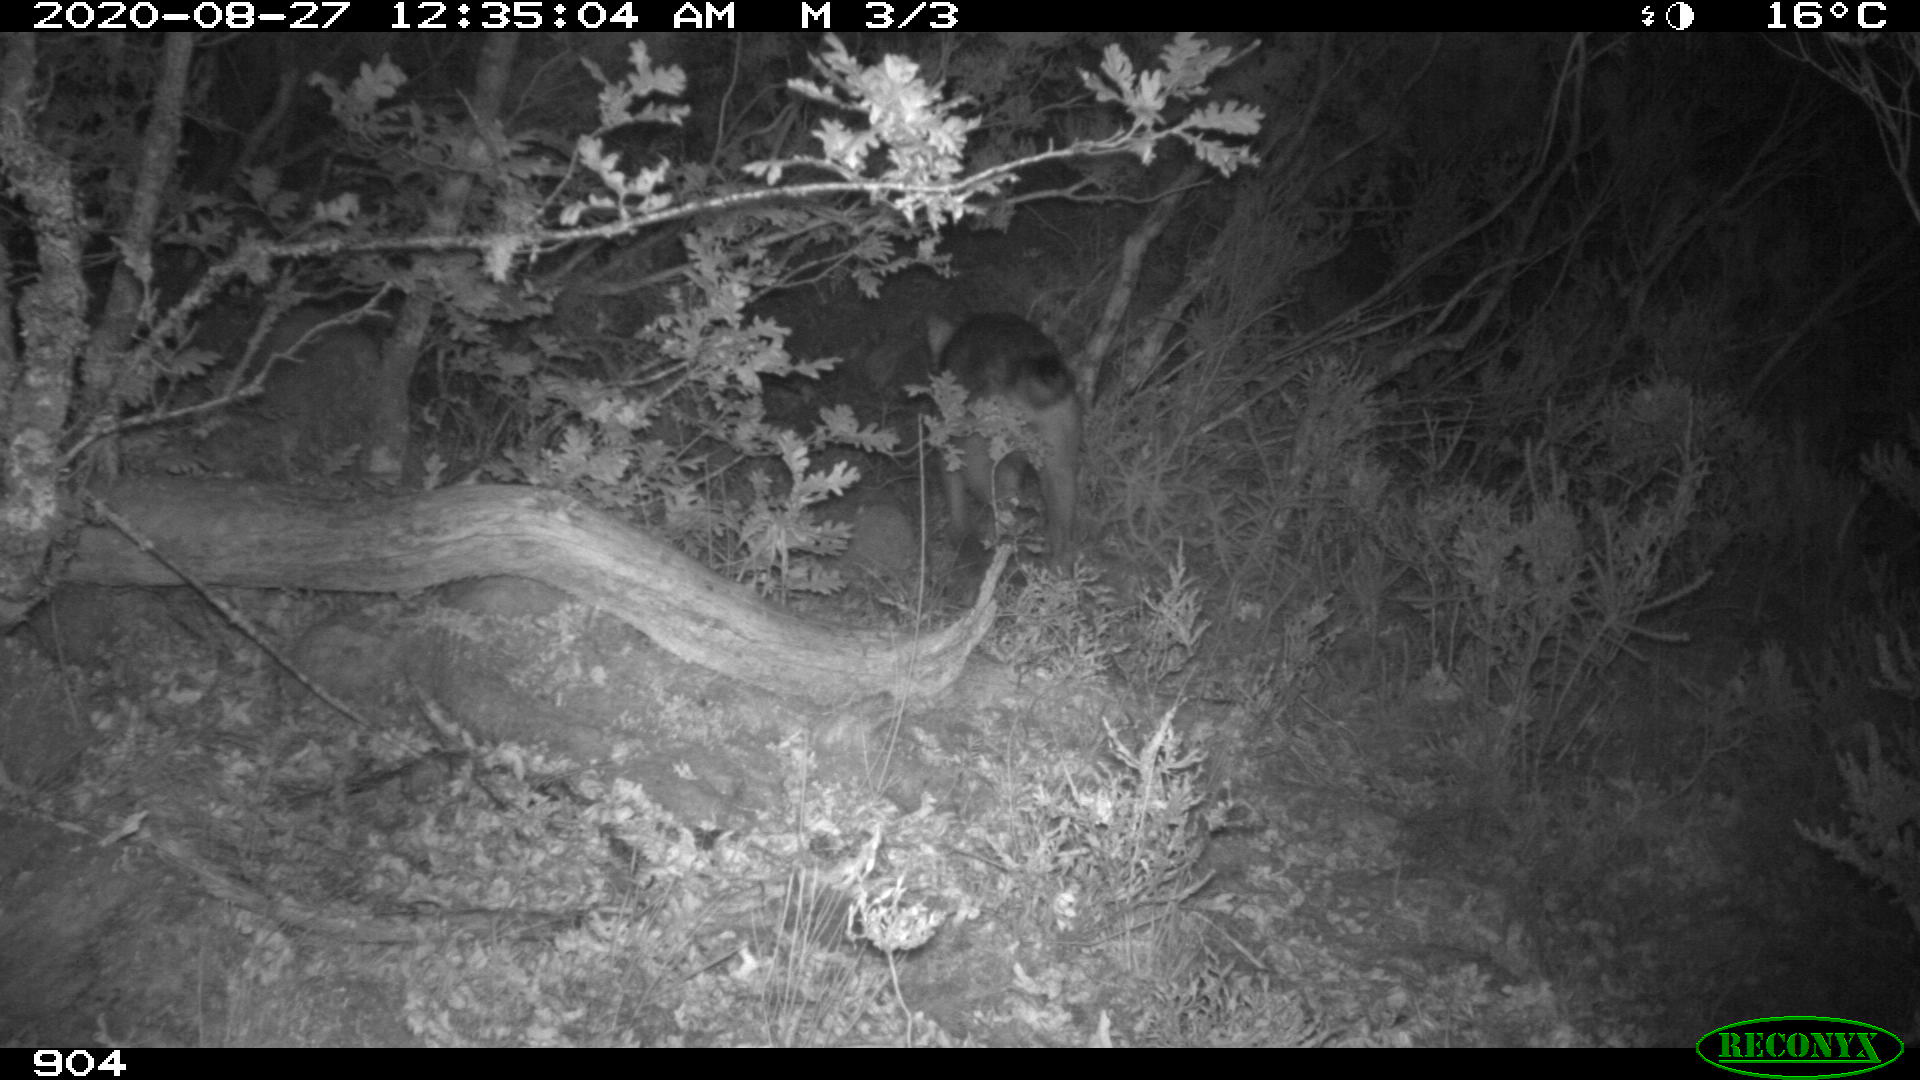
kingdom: Animalia
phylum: Chordata
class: Mammalia
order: Carnivora
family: Canidae
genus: Canis
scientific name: Canis lupus
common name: Gray wolf
